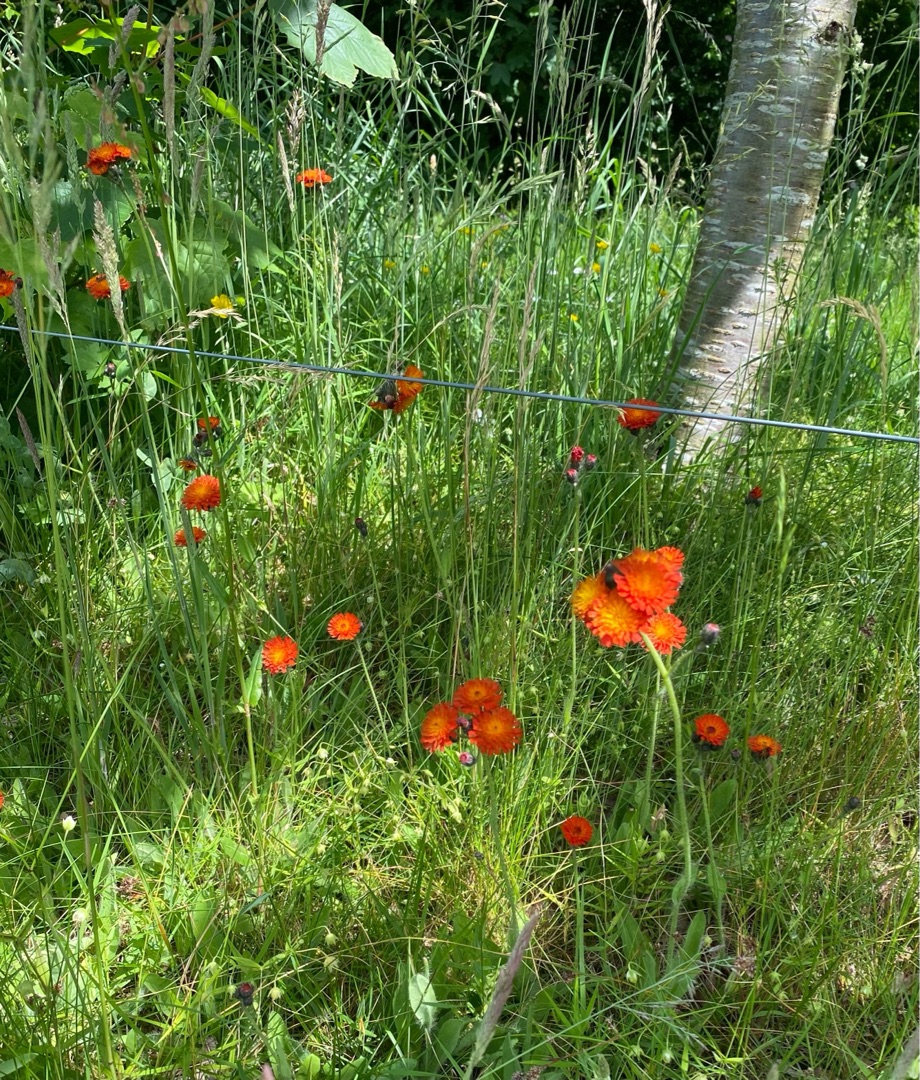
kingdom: Plantae
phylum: Tracheophyta
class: Magnoliopsida
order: Asterales
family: Asteraceae
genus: Pilosella
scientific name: Pilosella aurantiaca
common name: Pomerans-høgeurt
